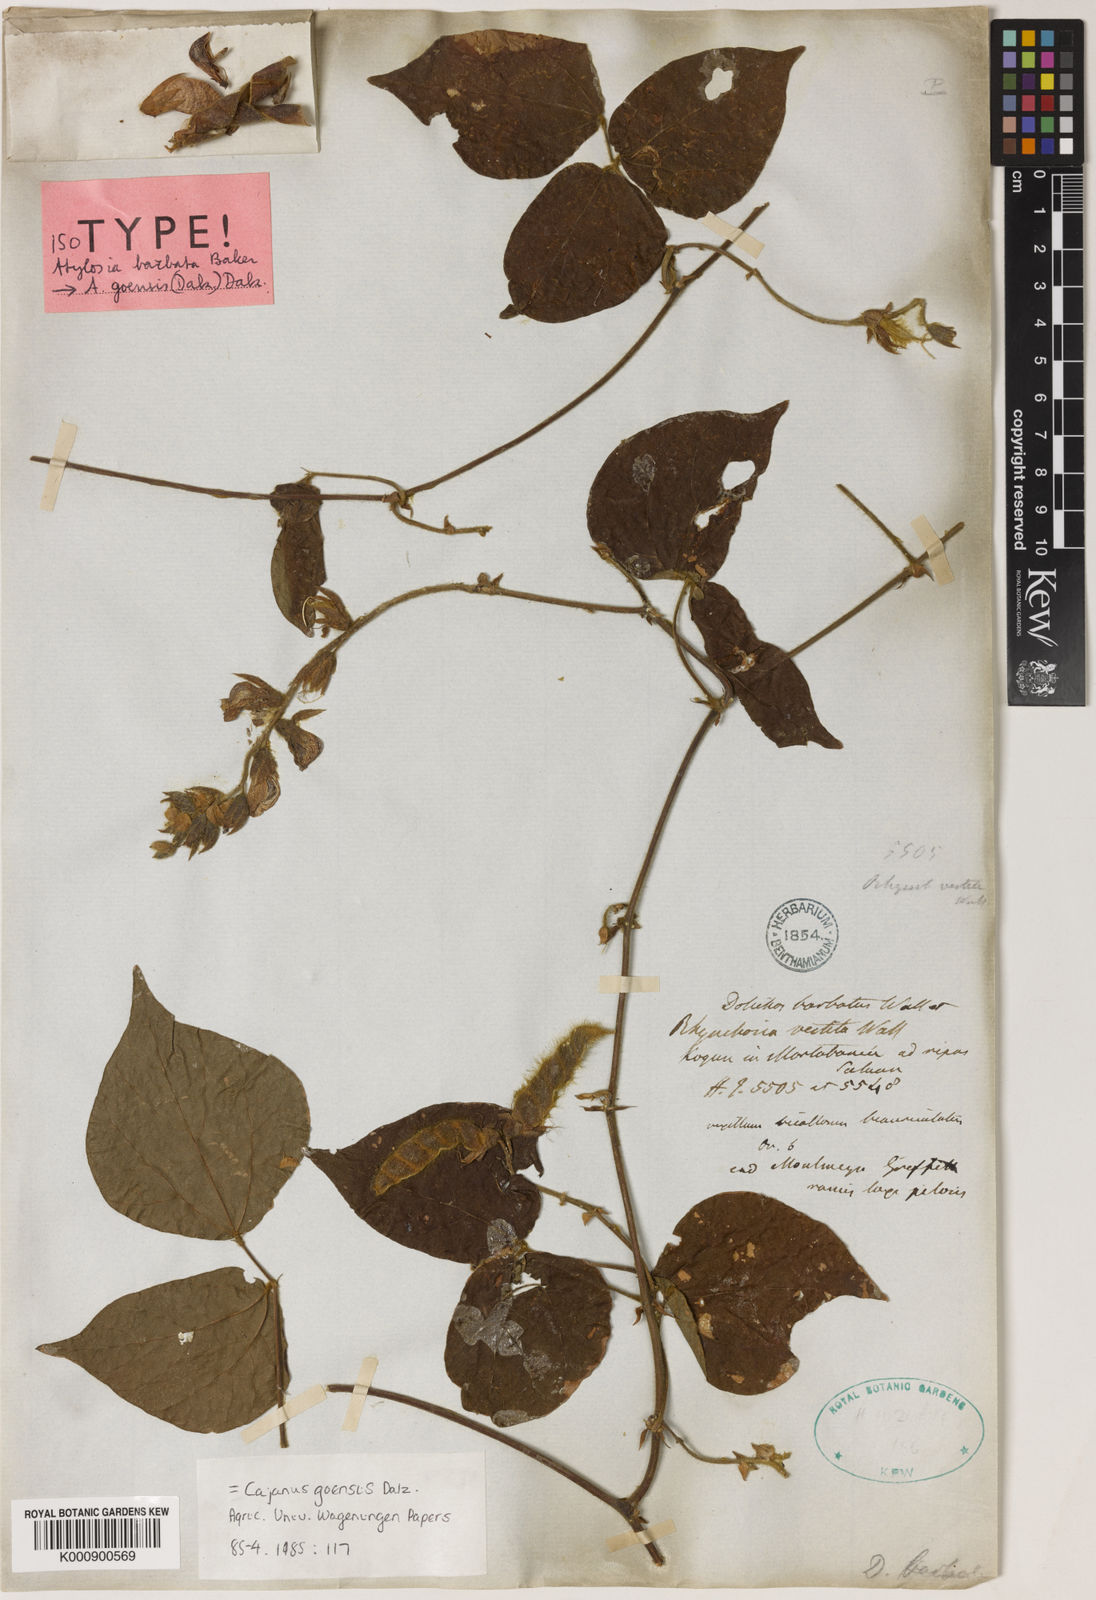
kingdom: Plantae
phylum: Tracheophyta
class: Magnoliopsida
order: Fabales
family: Fabaceae
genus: Cajanus
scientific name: Cajanus goensis
